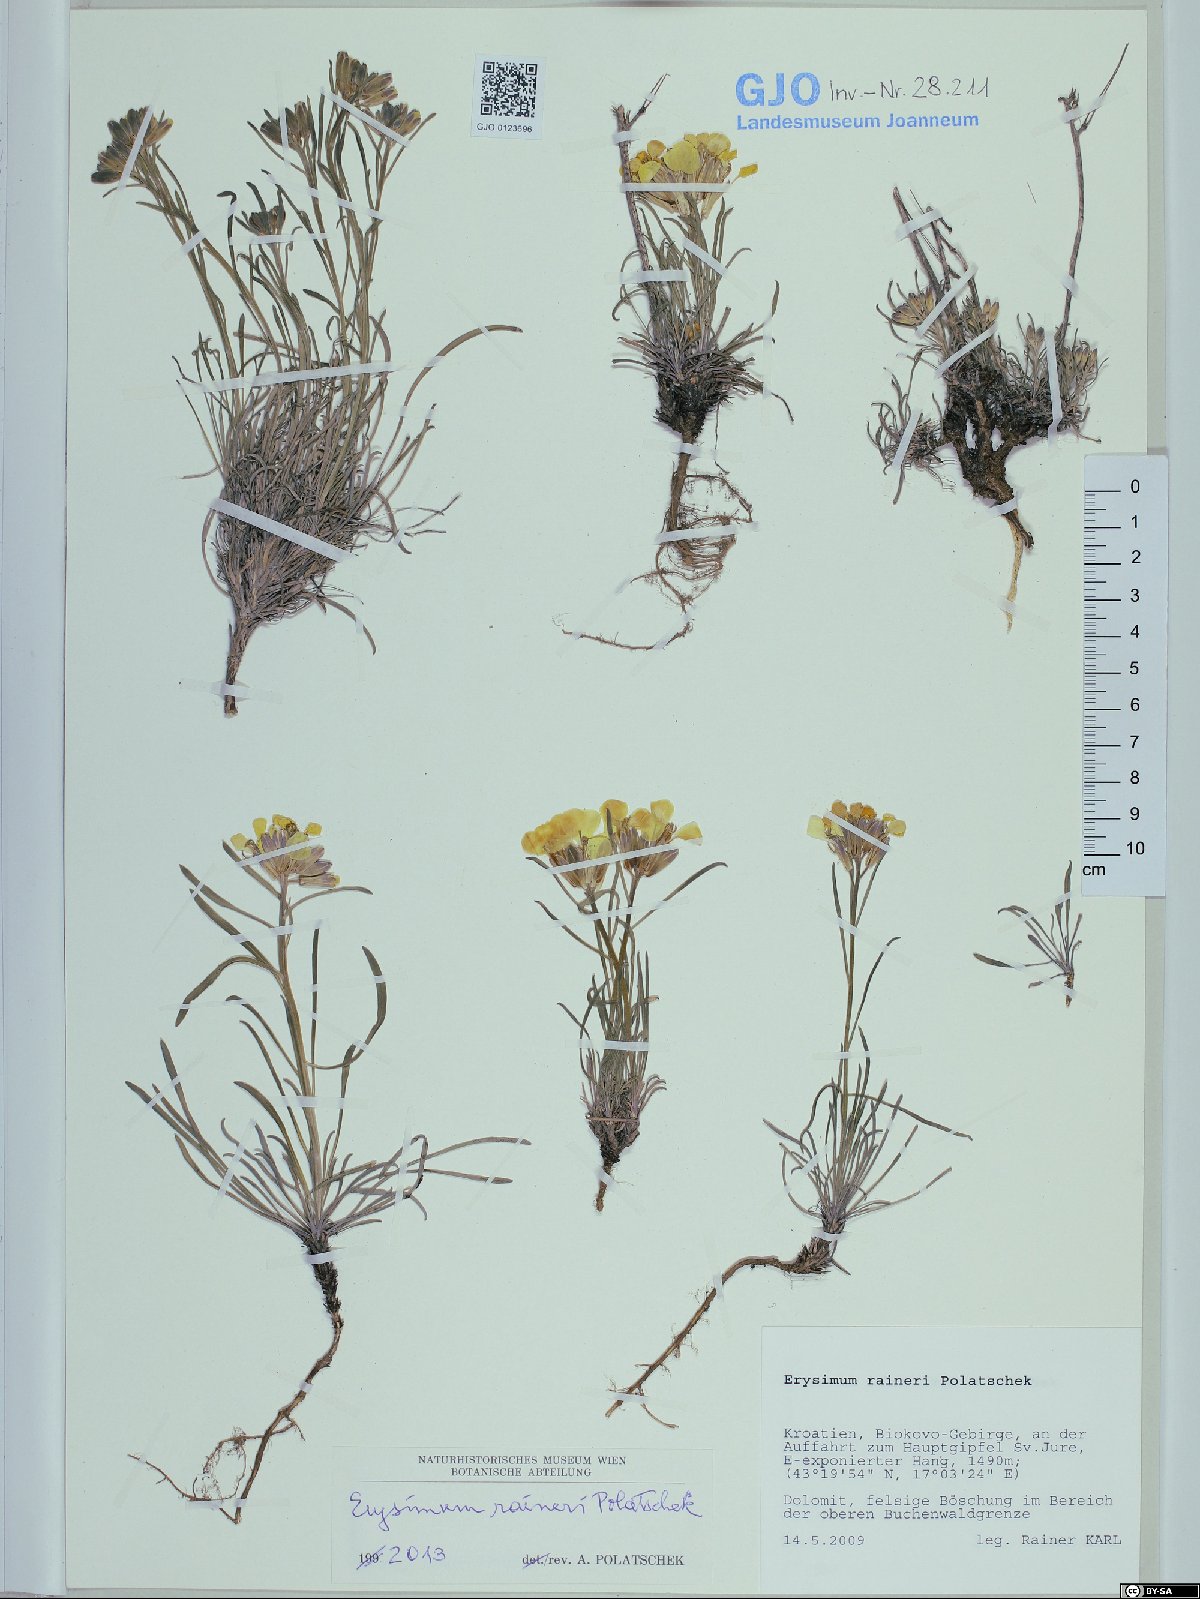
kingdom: Plantae
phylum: Tracheophyta
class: Magnoliopsida
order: Brassicales
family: Brassicaceae
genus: Erysimum
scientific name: Erysimum raineri
